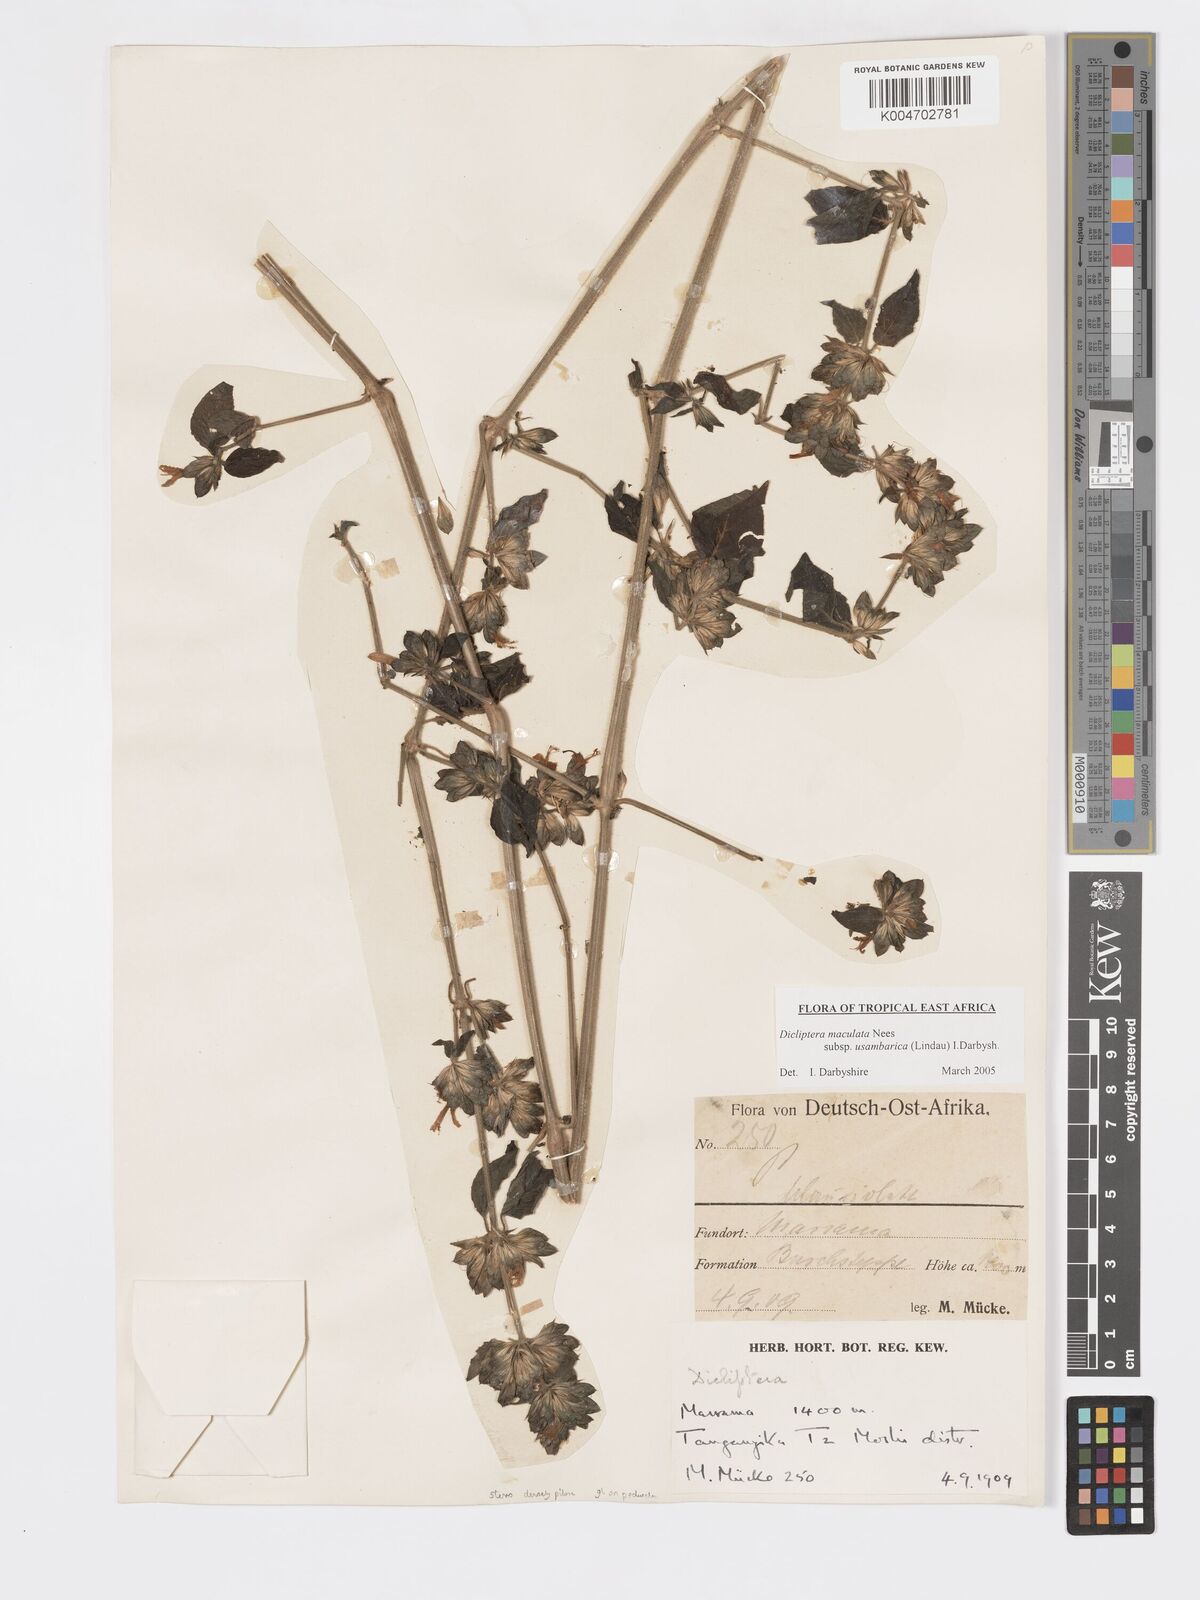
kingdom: Plantae
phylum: Tracheophyta
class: Magnoliopsida
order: Lamiales
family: Acanthaceae
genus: Dicliptera
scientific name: Dicliptera maculata
